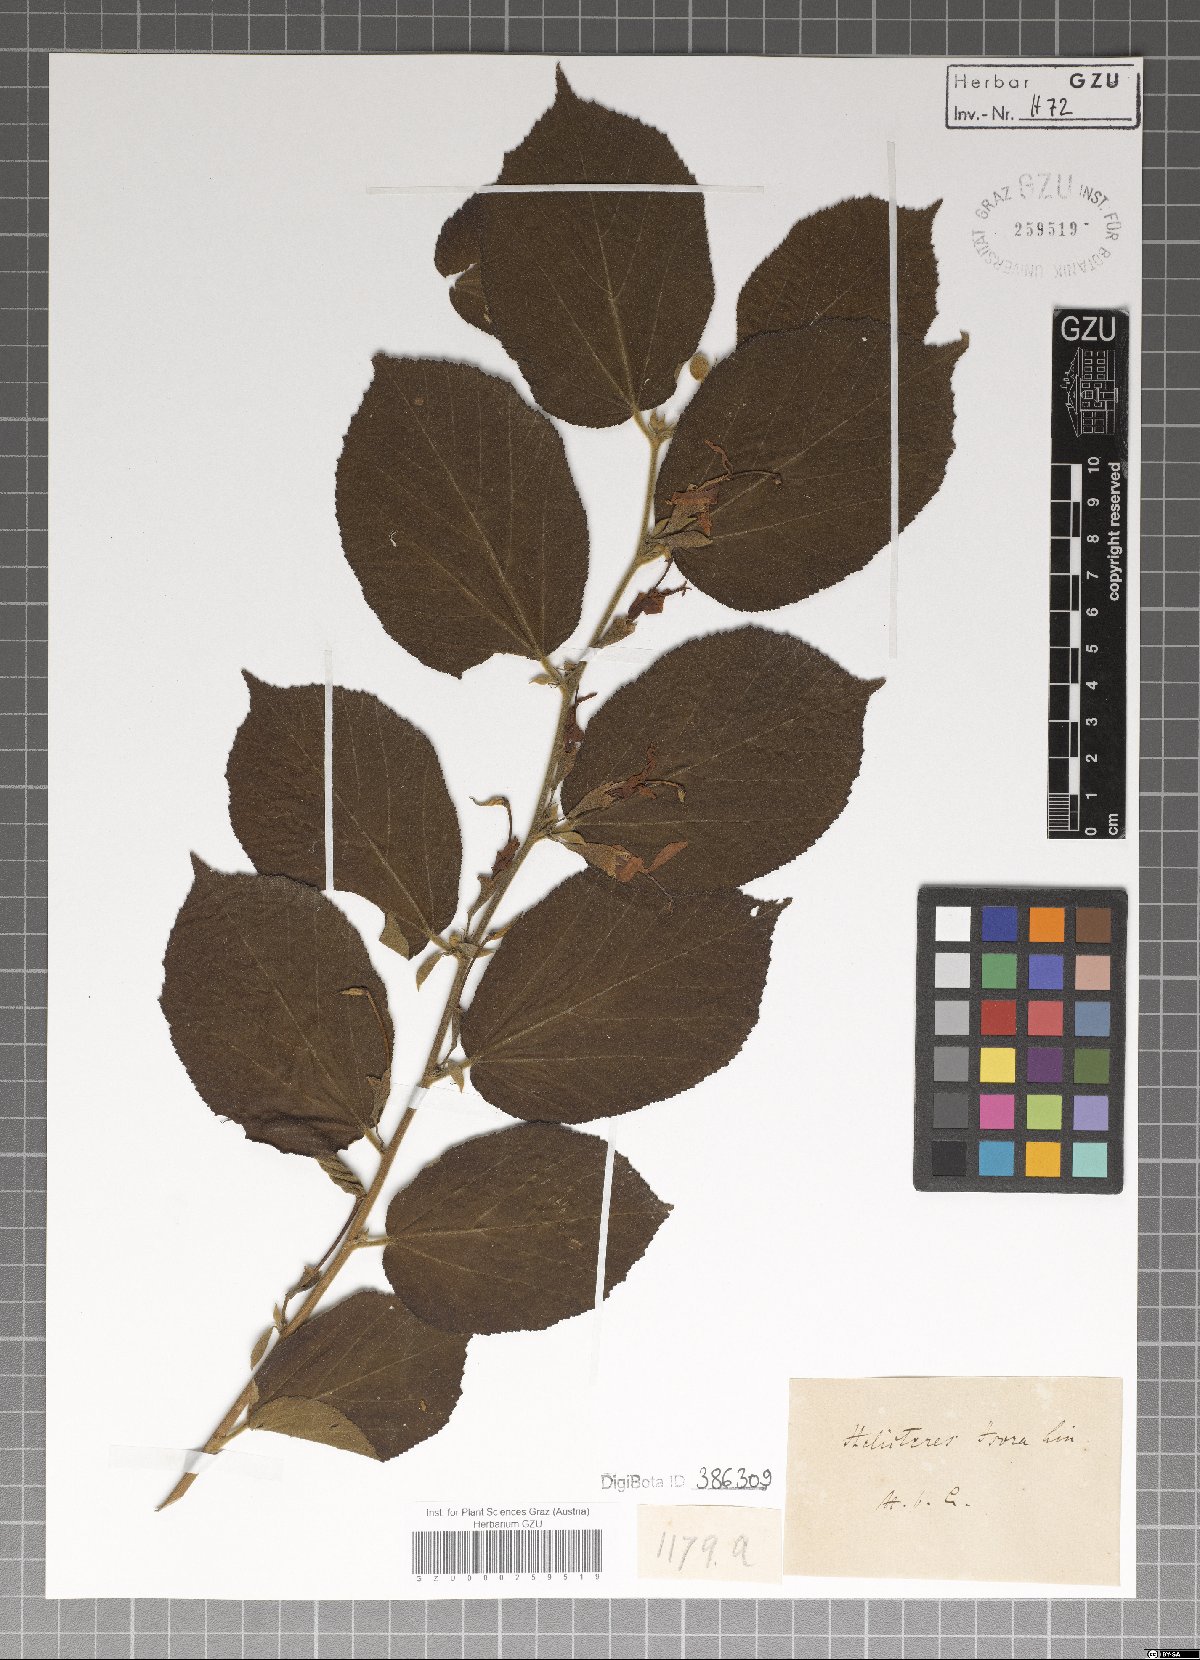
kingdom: Plantae
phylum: Tracheophyta
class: Magnoliopsida
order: Malvales
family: Malvaceae
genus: Helicteres
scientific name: Helicteres isora
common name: East indian screwtree
